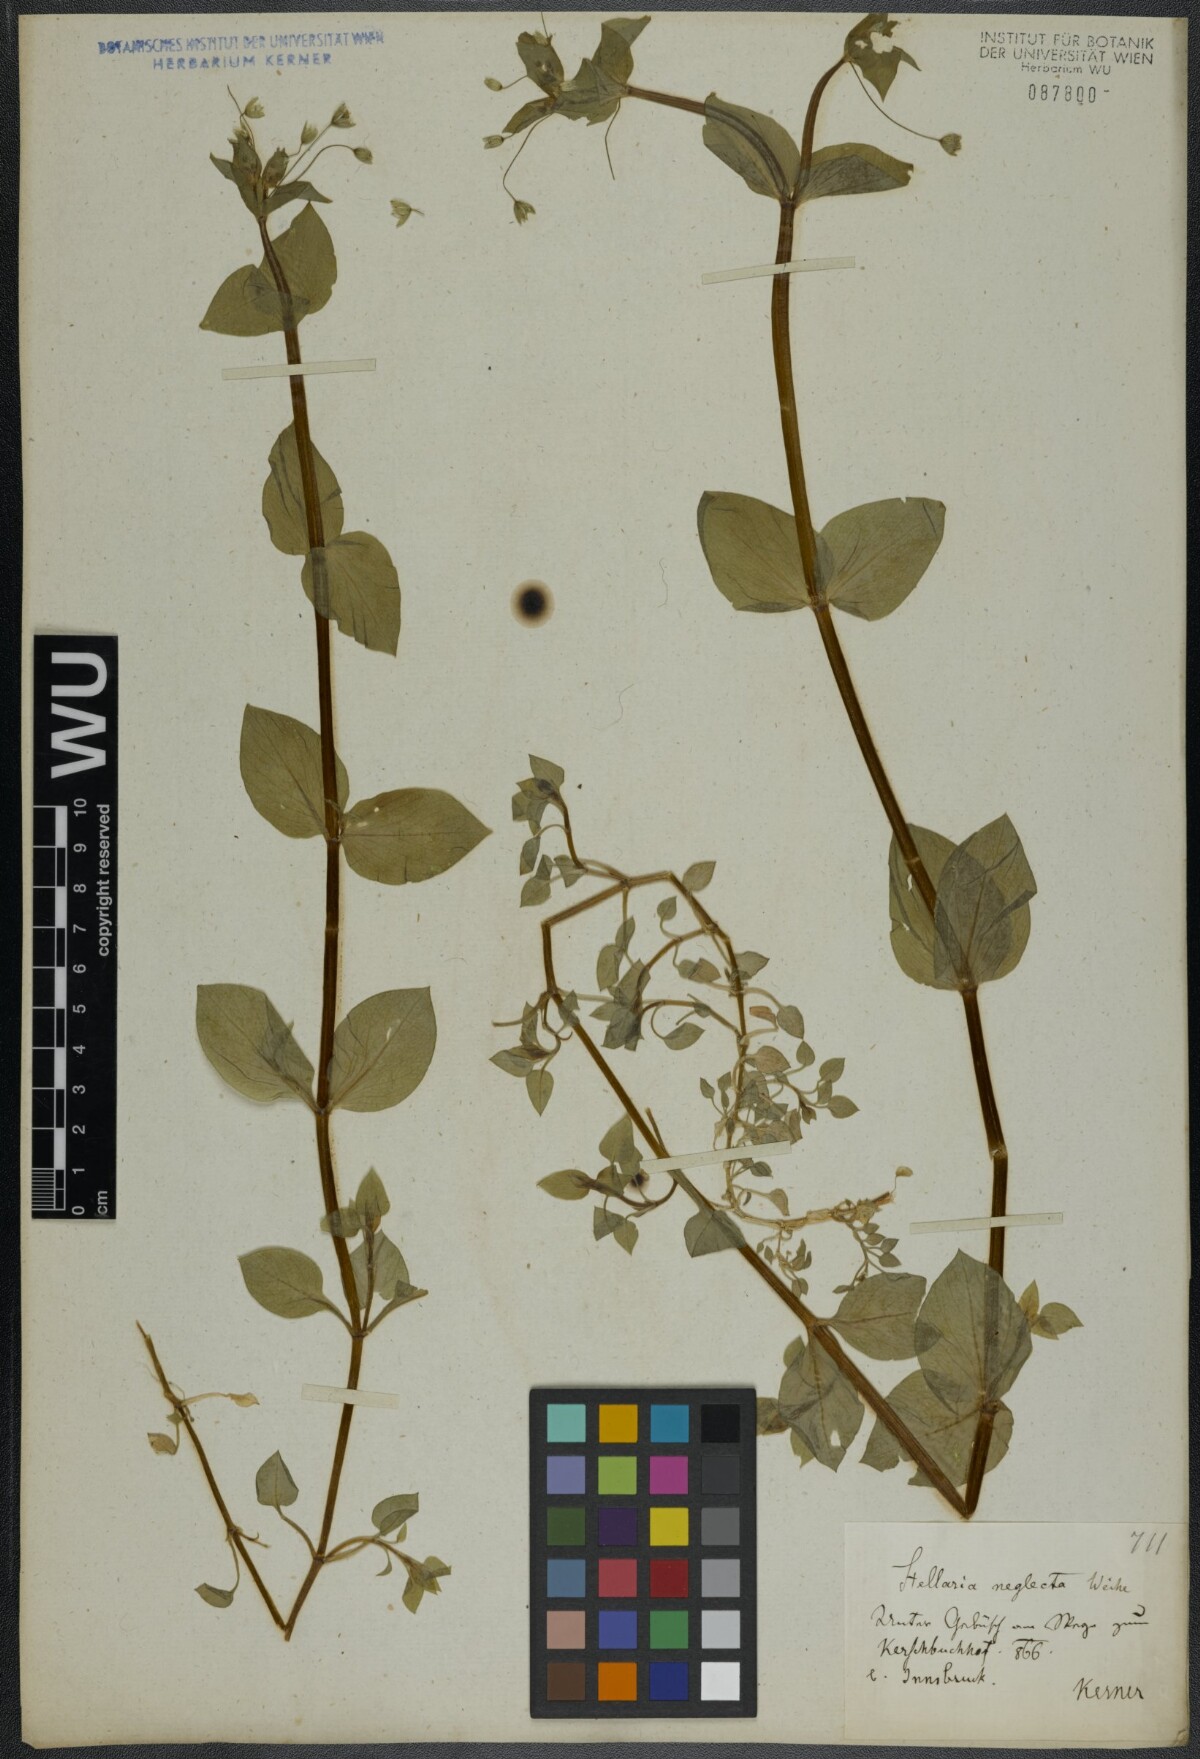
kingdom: Plantae
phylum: Tracheophyta
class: Magnoliopsida
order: Caryophyllales
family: Caryophyllaceae
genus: Stellaria
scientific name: Stellaria neglecta
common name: Greater chickweed
